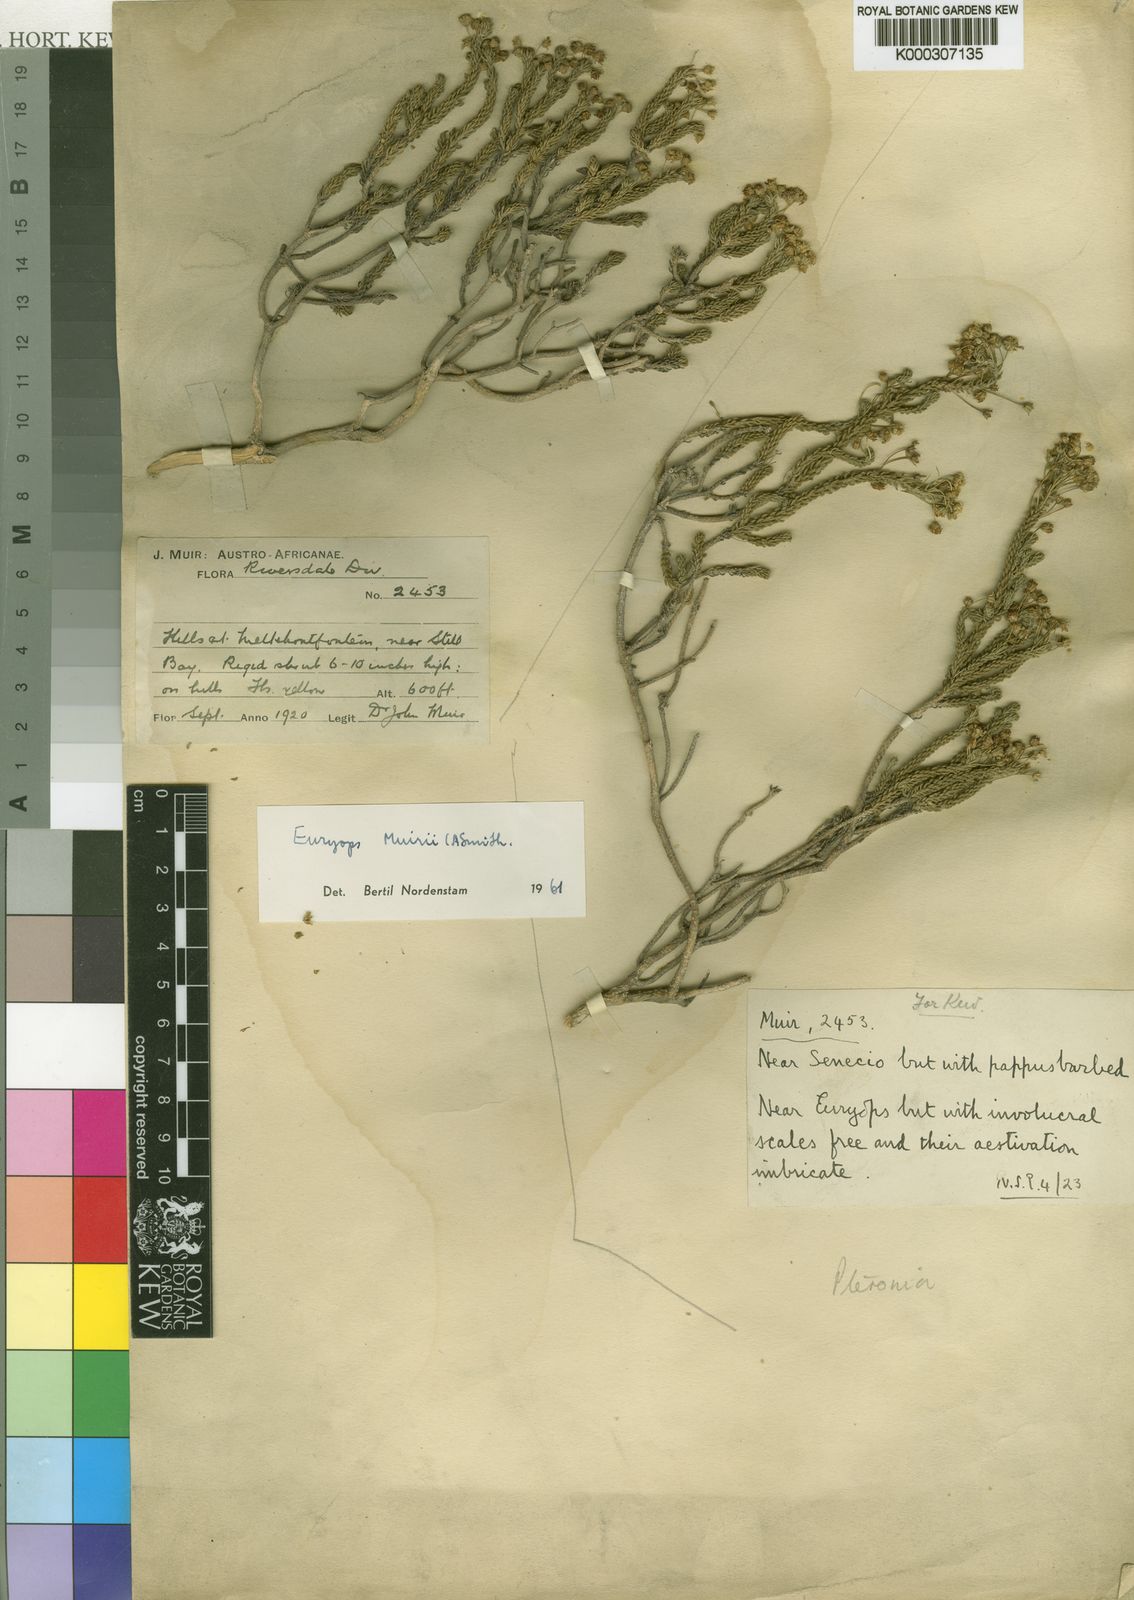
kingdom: Plantae
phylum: Tracheophyta
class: Magnoliopsida
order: Asterales
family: Asteraceae
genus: Euryops
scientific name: Euryops muirii
